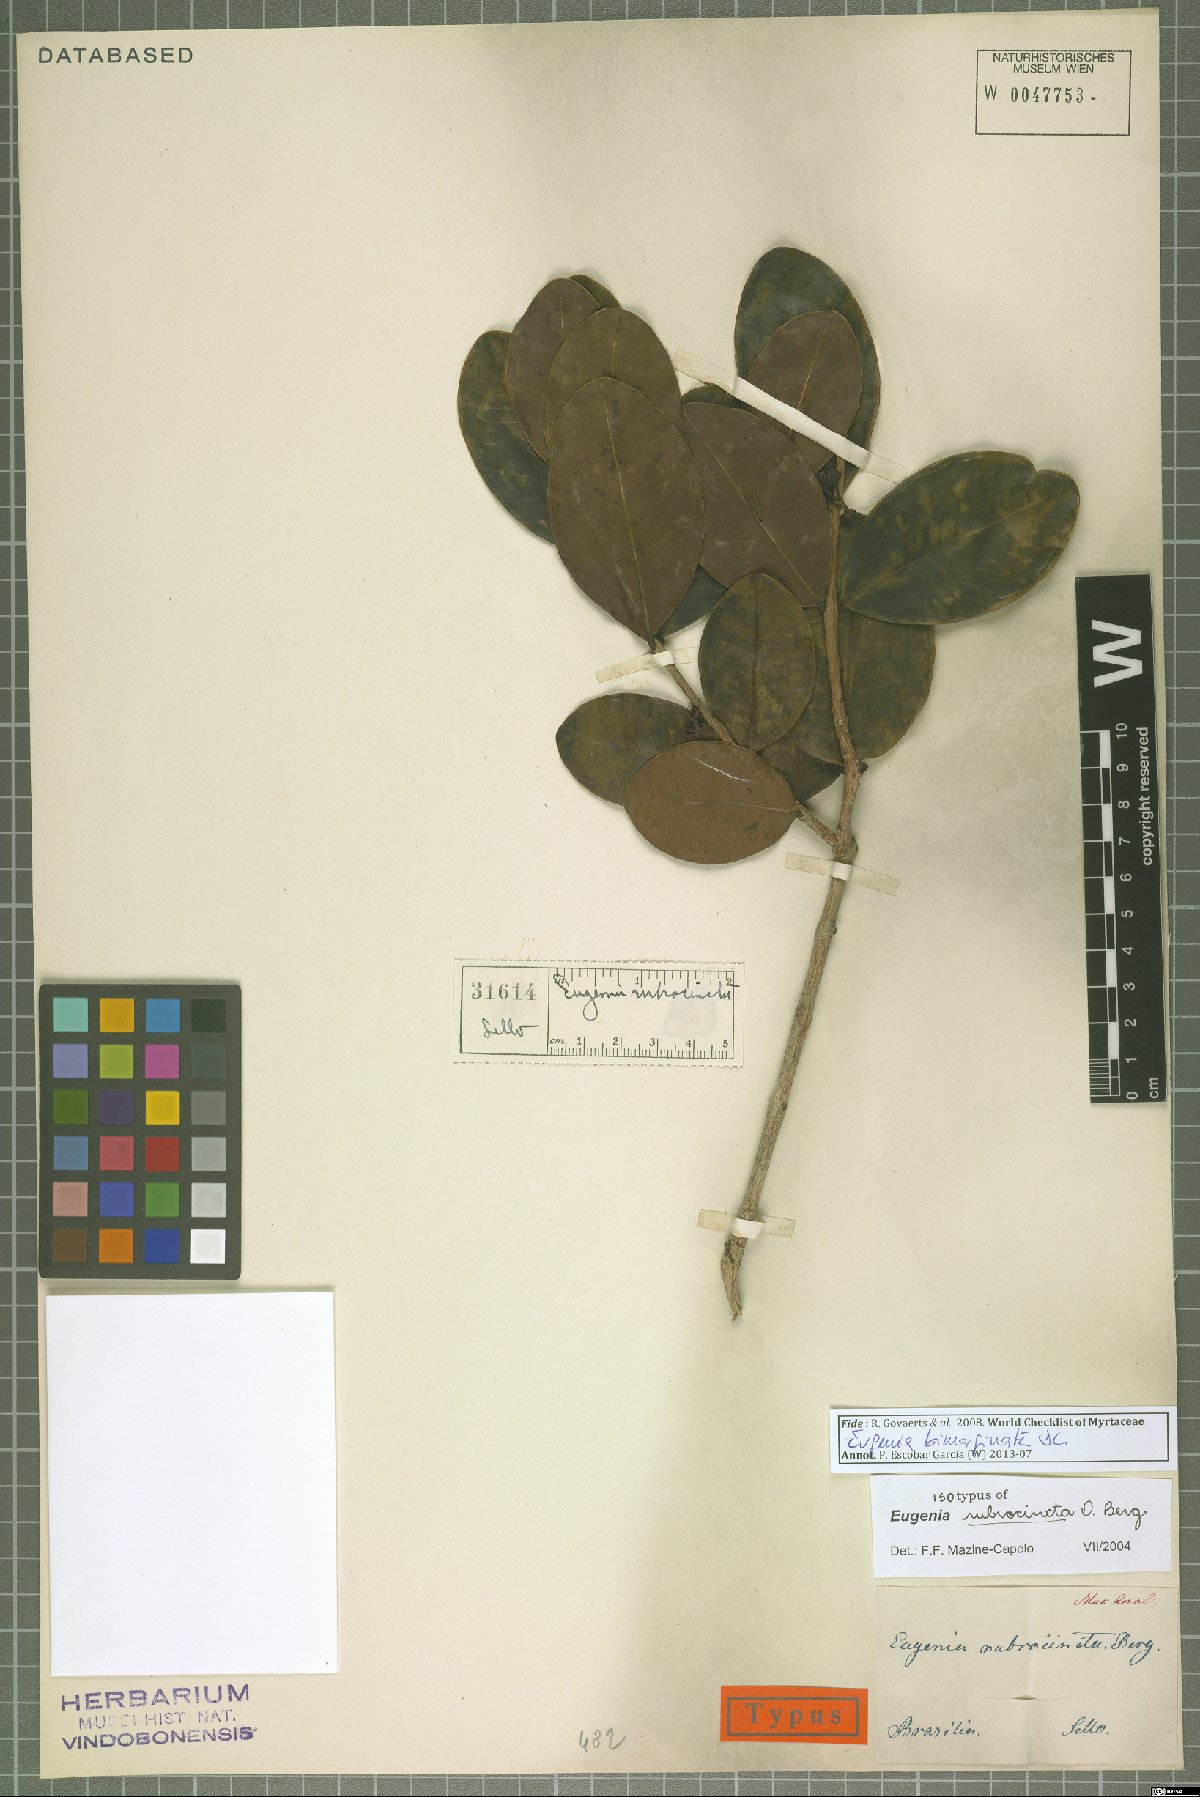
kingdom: Plantae
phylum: Tracheophyta
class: Magnoliopsida
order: Myrtales
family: Myrtaceae
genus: Eugenia
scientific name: Eugenia bimarginata
